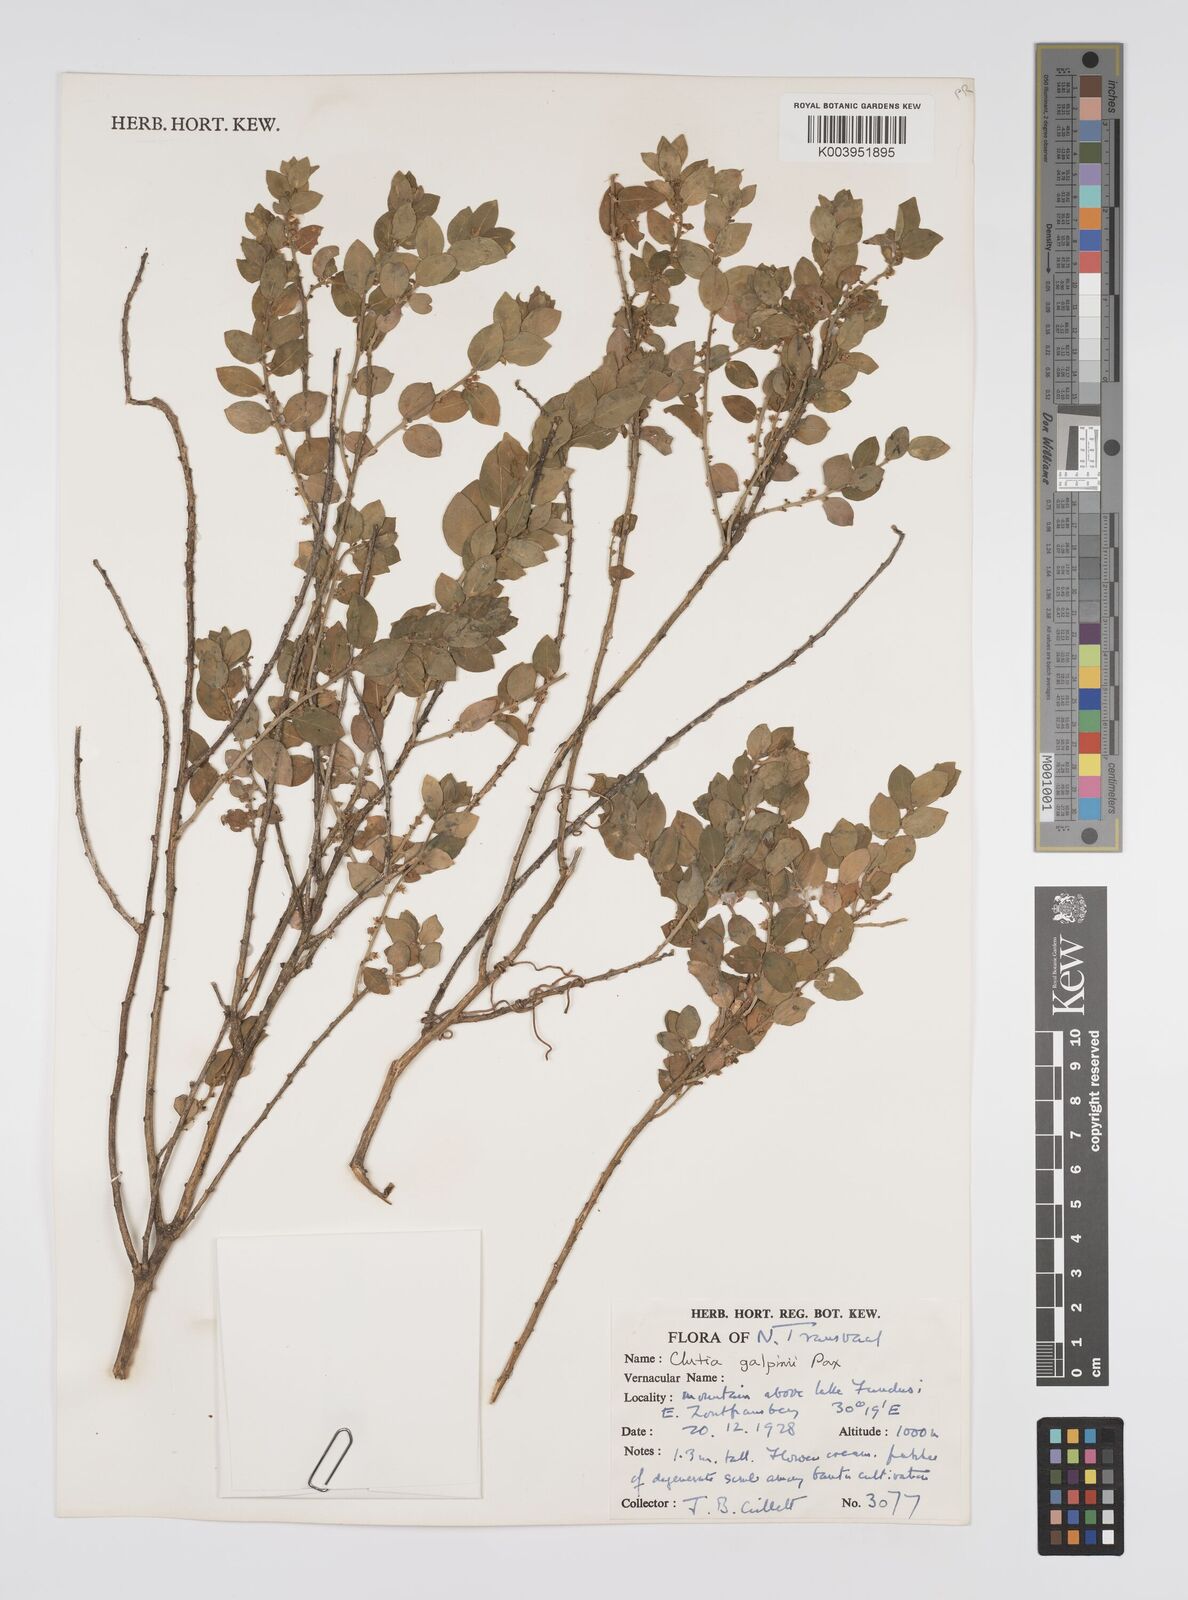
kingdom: Plantae
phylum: Tracheophyta
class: Magnoliopsida
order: Malpighiales
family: Peraceae
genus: Clutia
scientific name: Clutia galpinii
